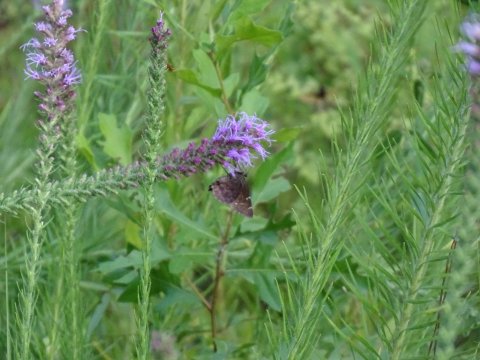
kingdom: Animalia
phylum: Arthropoda
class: Insecta
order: Lepidoptera
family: Hesperiidae
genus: Thorybes
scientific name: Thorybes mexicana
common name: Confused Cloudywing
